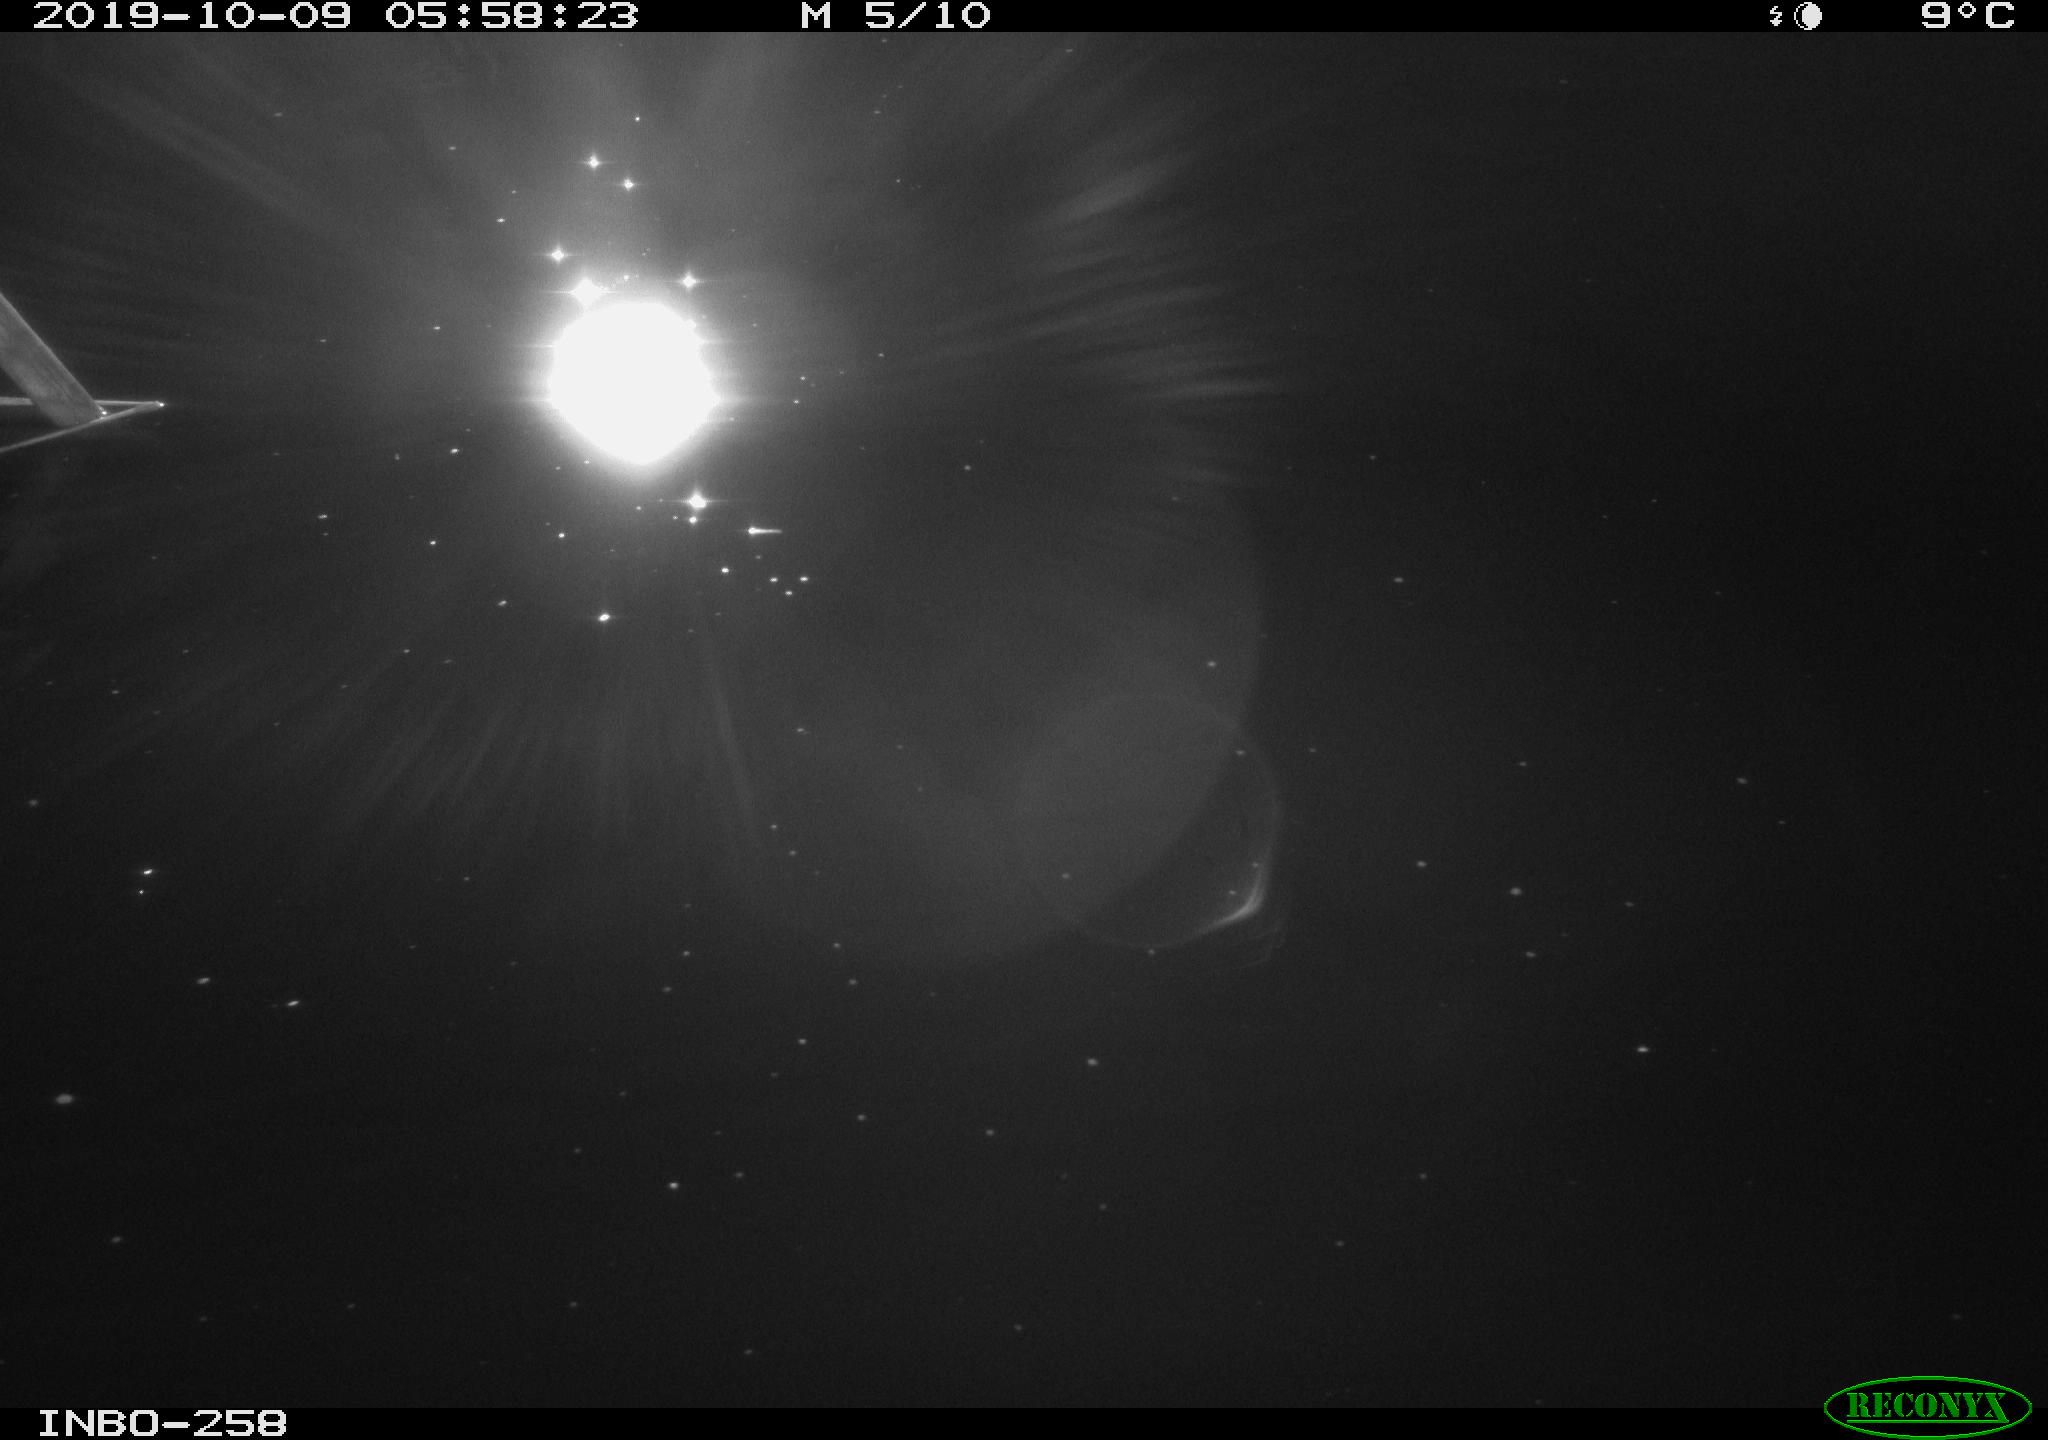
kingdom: Animalia
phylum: Chordata
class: Aves
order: Anseriformes
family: Anatidae
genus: Anas
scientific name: Anas platyrhynchos
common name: Mallard
